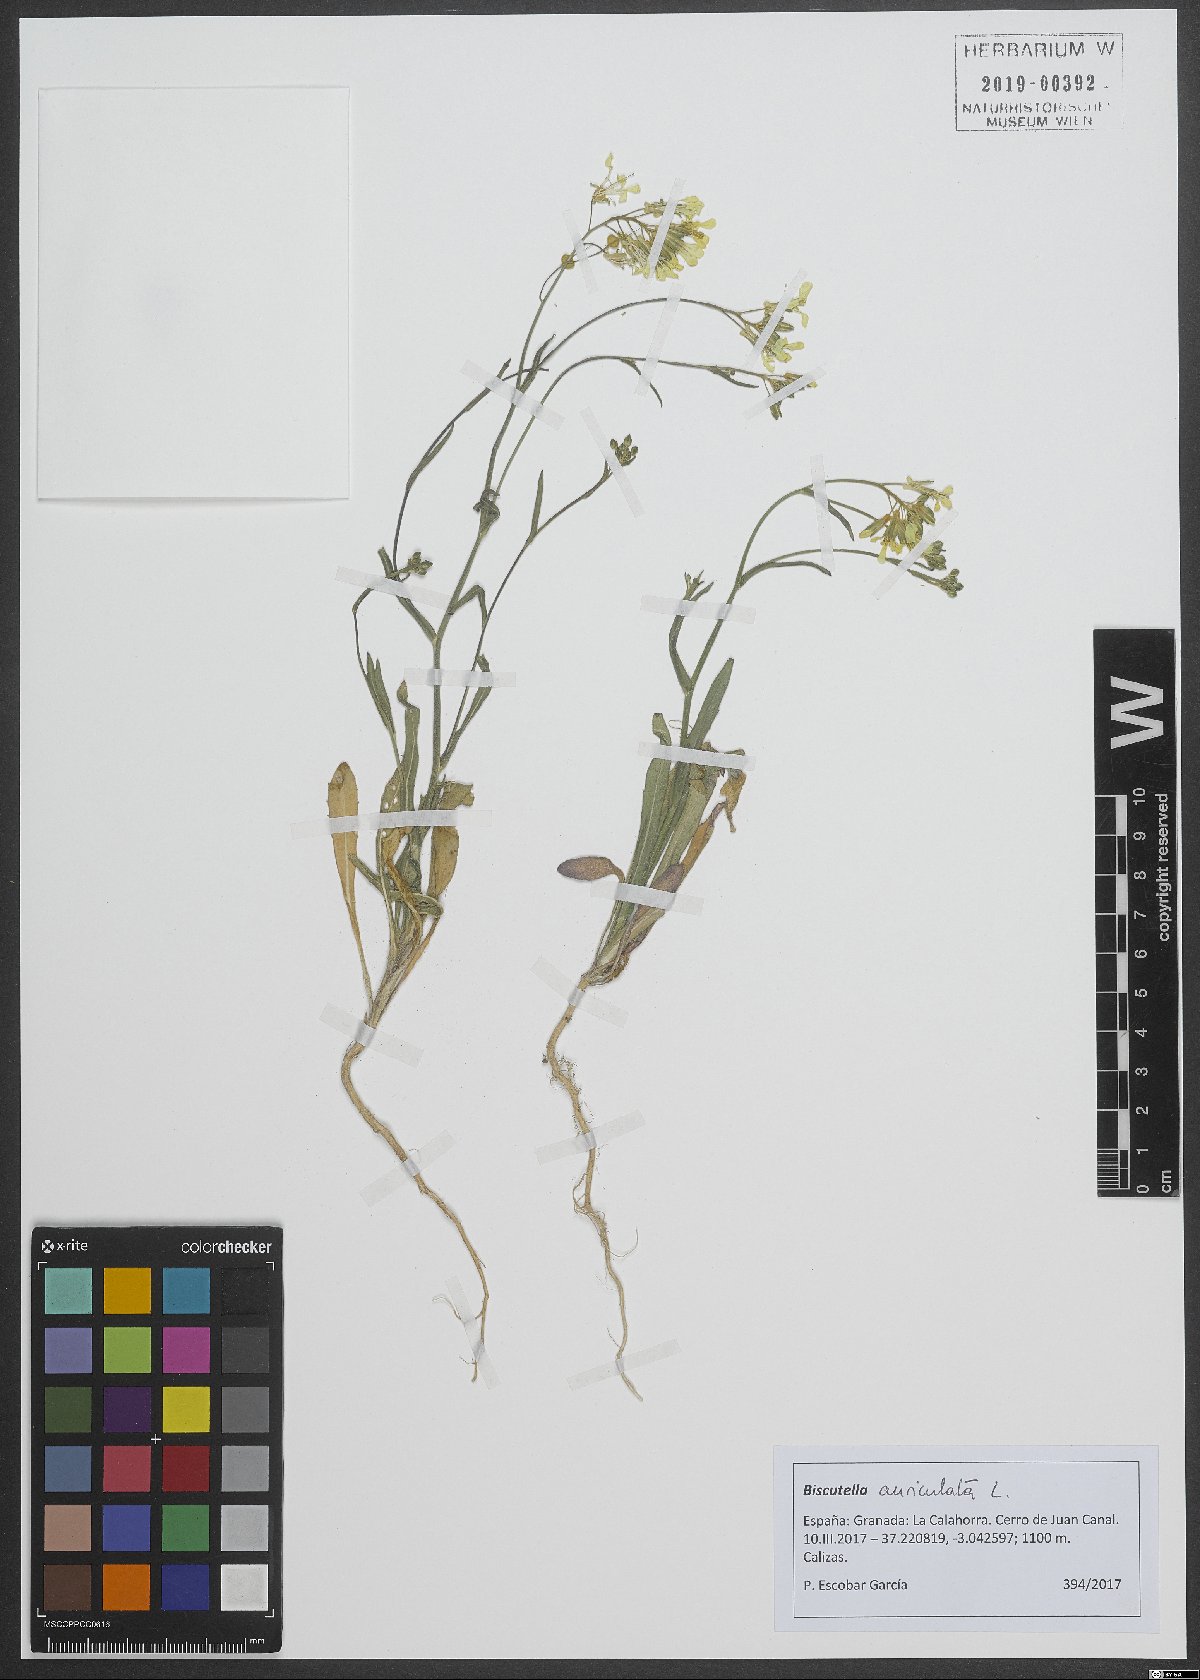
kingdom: Plantae
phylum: Tracheophyta
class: Magnoliopsida
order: Brassicales
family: Brassicaceae
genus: Biscutella
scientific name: Biscutella auriculata
